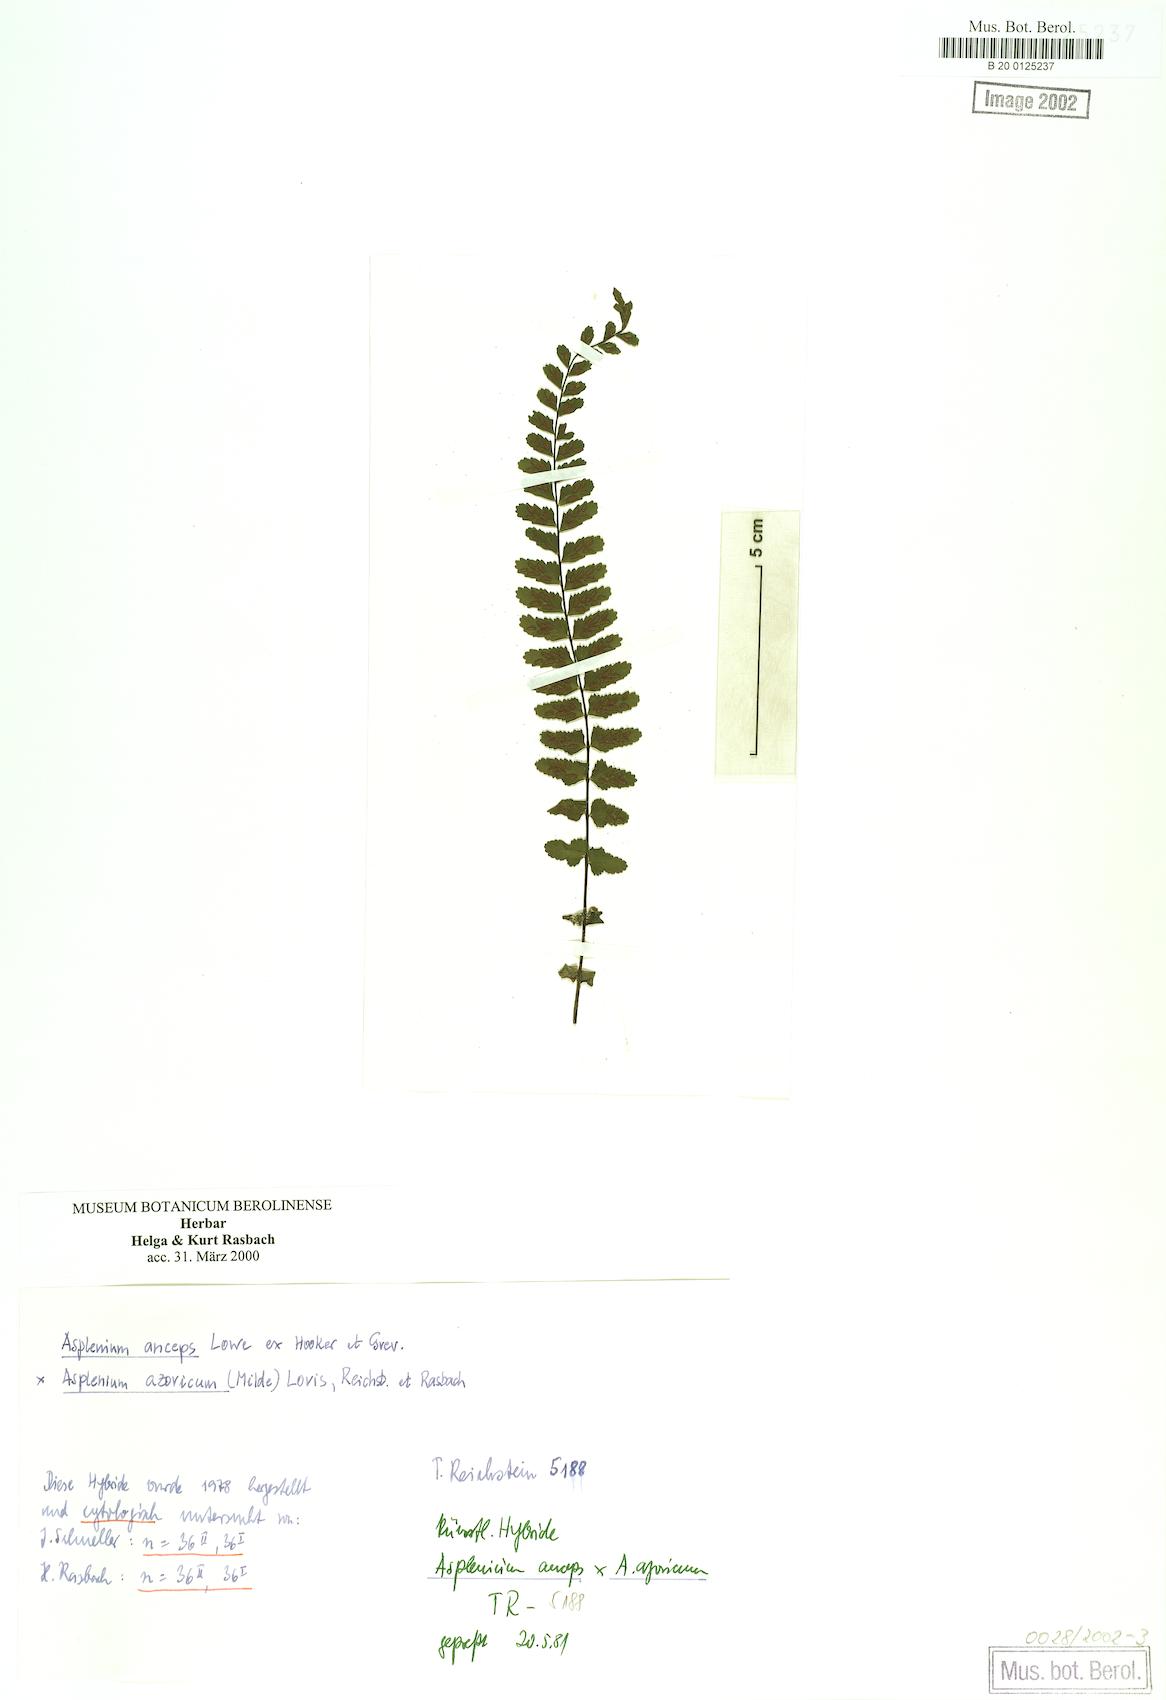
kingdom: Plantae
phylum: Tracheophyta
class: Polypodiopsida
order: Polypodiales
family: Aspleniaceae
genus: Asplenium
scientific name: Asplenium anceps
